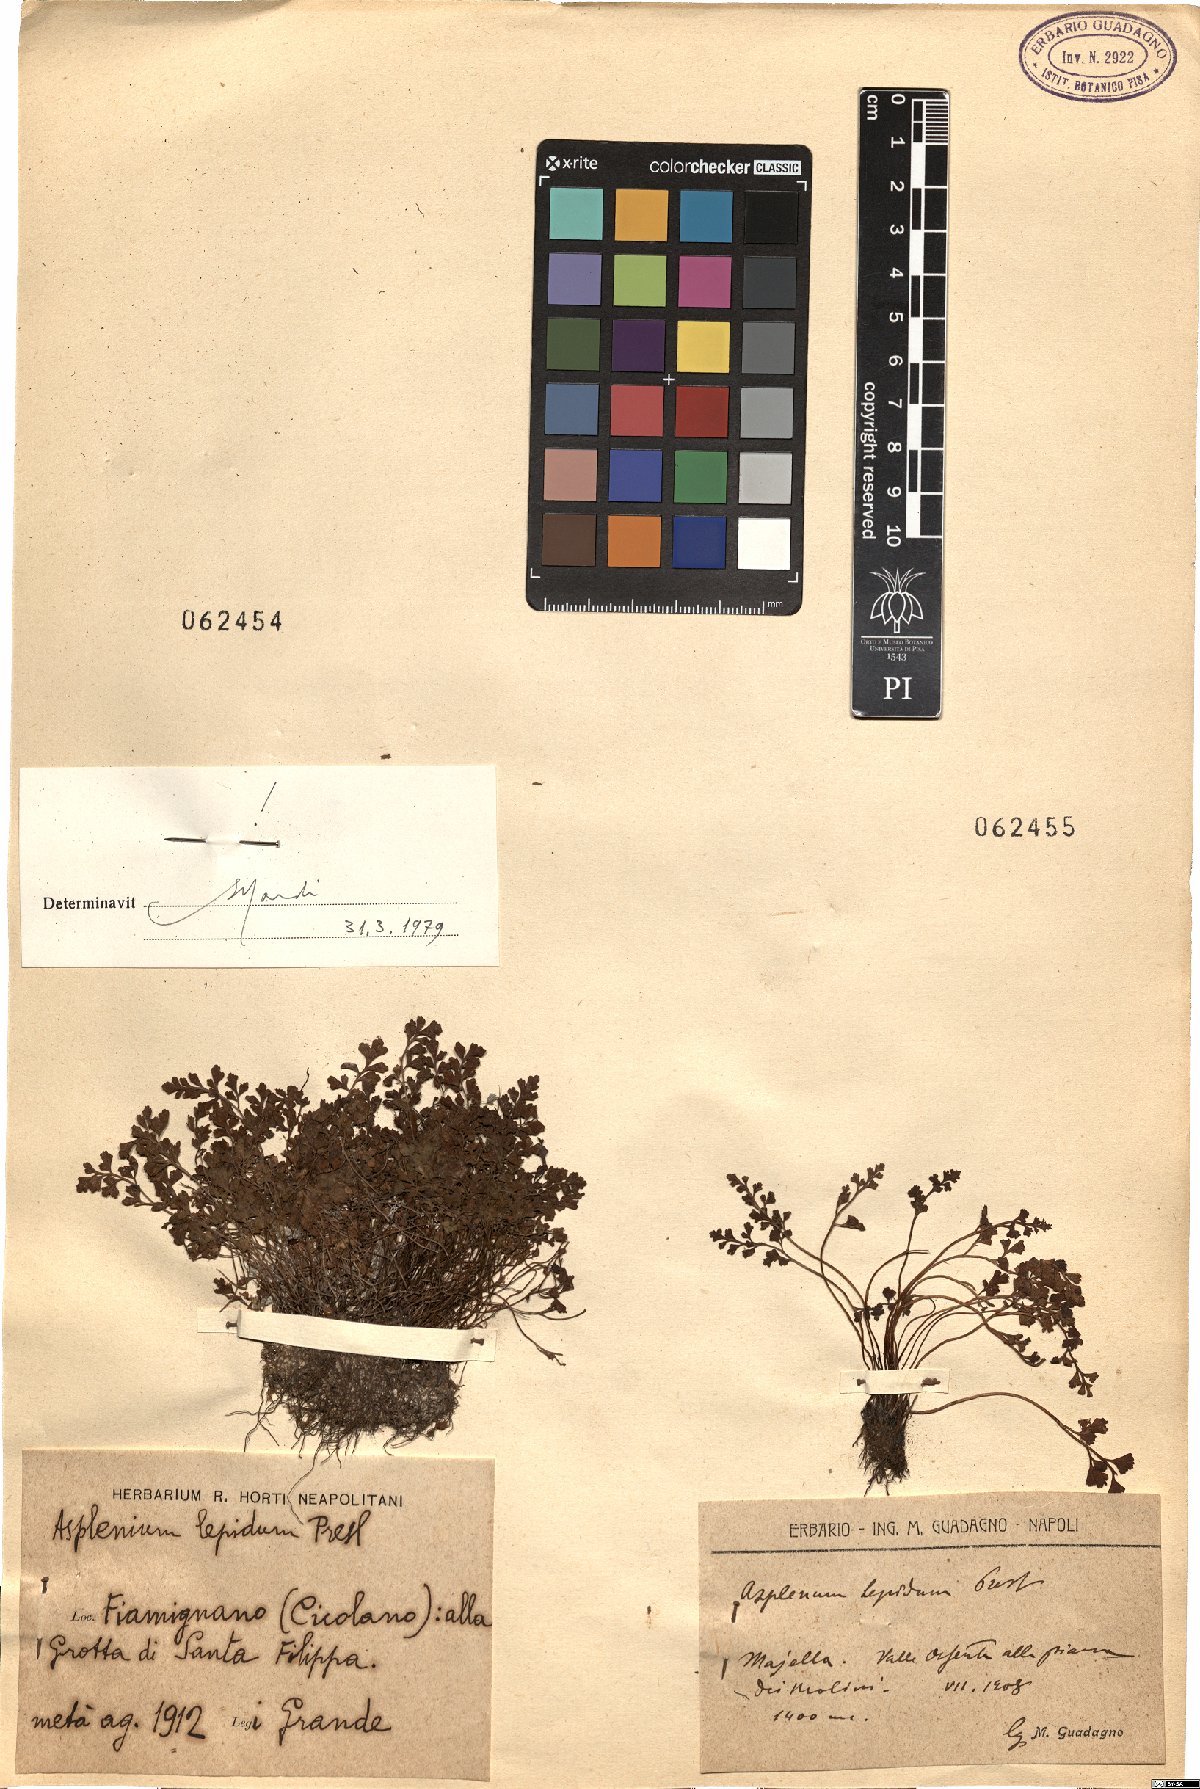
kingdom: Plantae
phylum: Tracheophyta
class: Polypodiopsida
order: Polypodiales
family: Aspleniaceae
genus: Asplenium
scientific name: Asplenium lepidum
